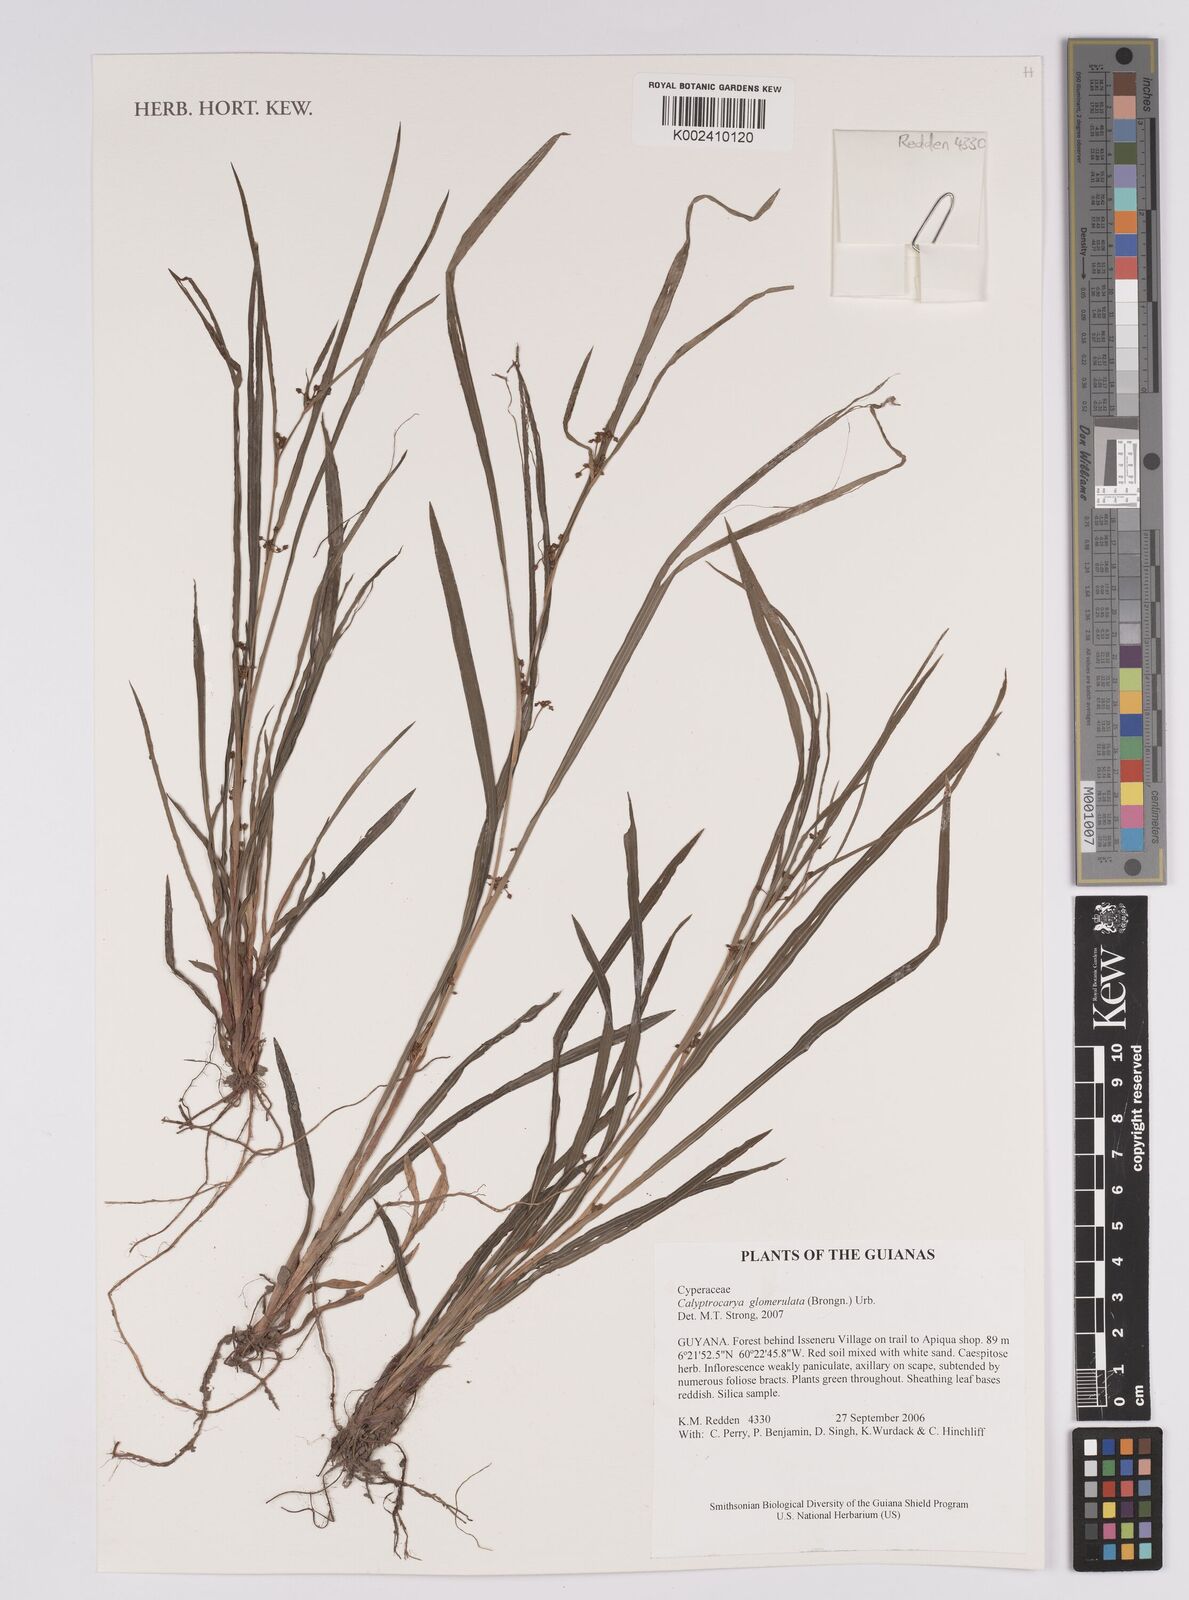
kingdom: Plantae
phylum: Tracheophyta
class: Liliopsida
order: Poales
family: Cyperaceae
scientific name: Cyperaceae
